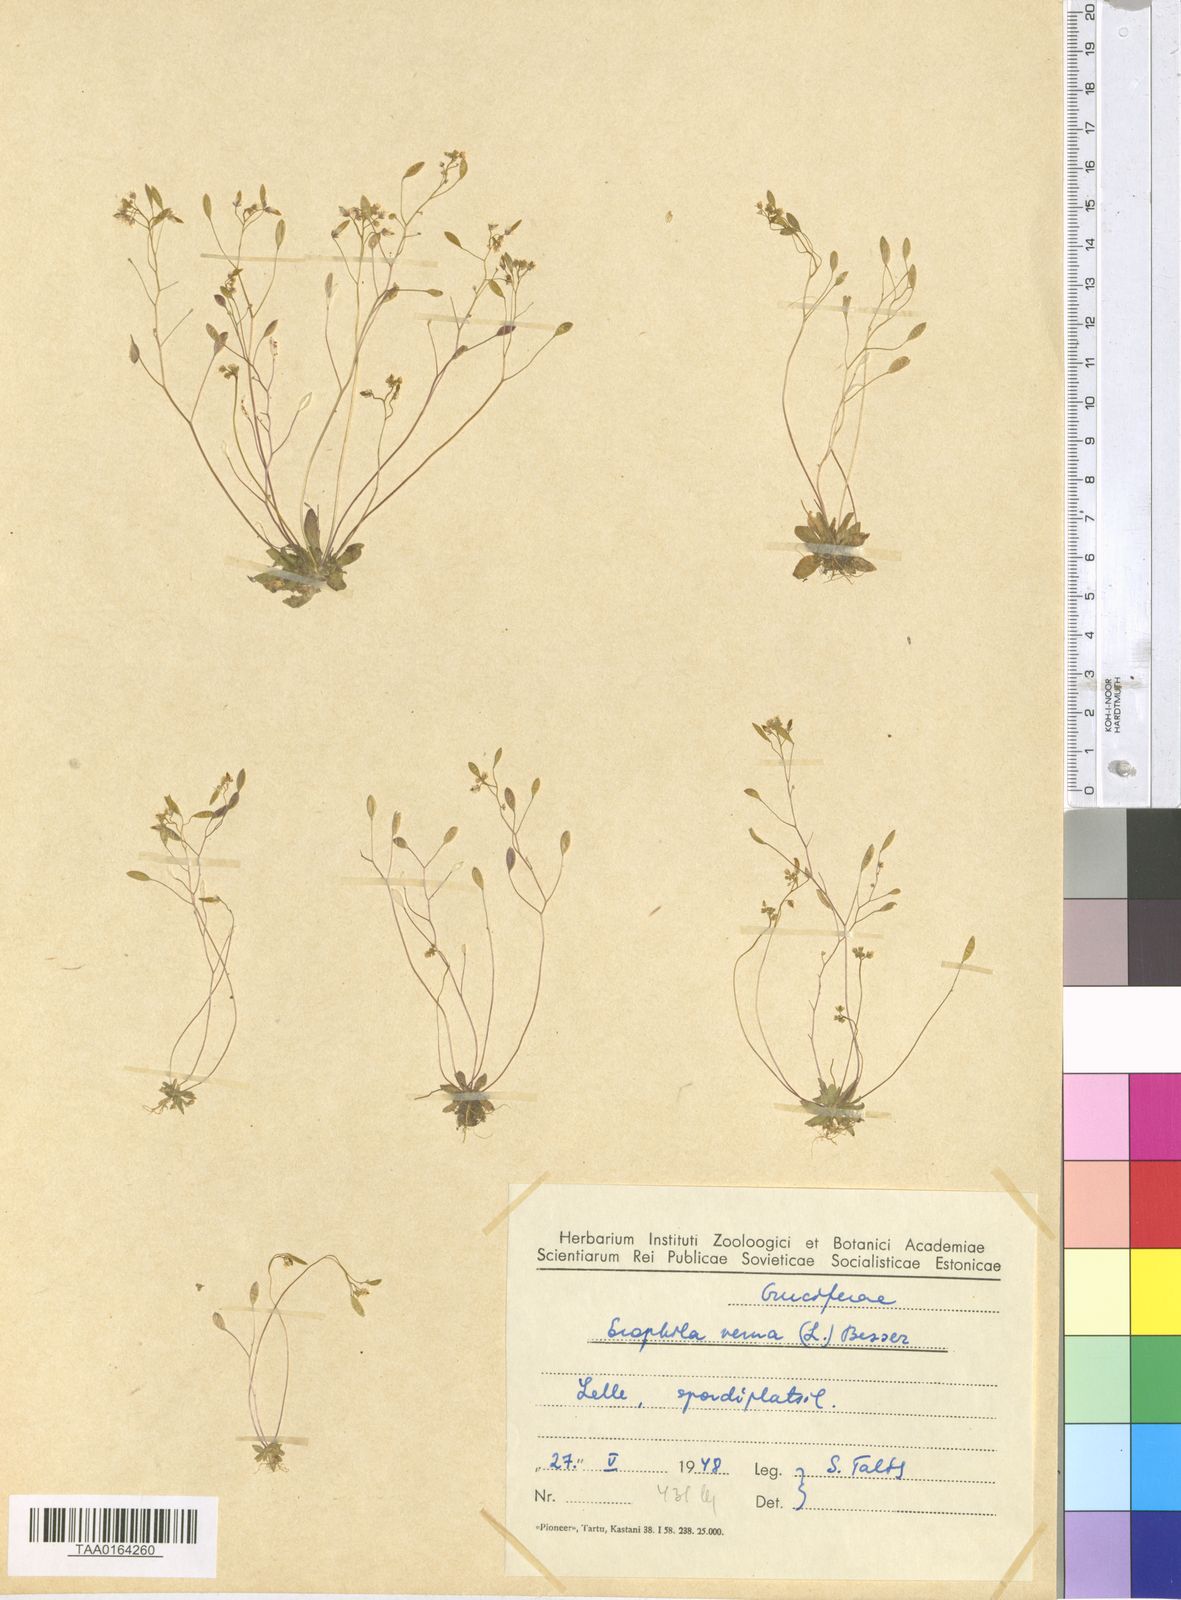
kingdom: Plantae
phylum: Tracheophyta
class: Magnoliopsida
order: Brassicales
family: Brassicaceae
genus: Draba
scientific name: Draba verna
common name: Spring draba
